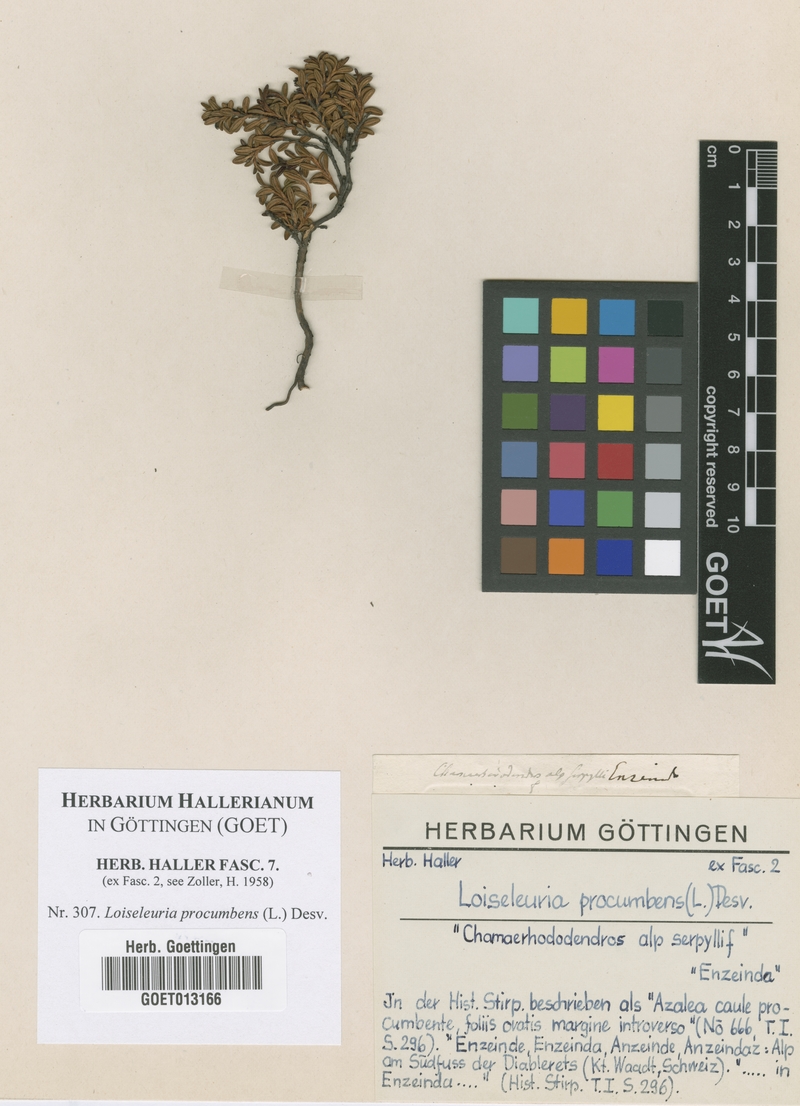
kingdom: Plantae
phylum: Tracheophyta
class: Magnoliopsida
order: Ericales
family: Ericaceae
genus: Kalmia
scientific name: Kalmia procumbens
